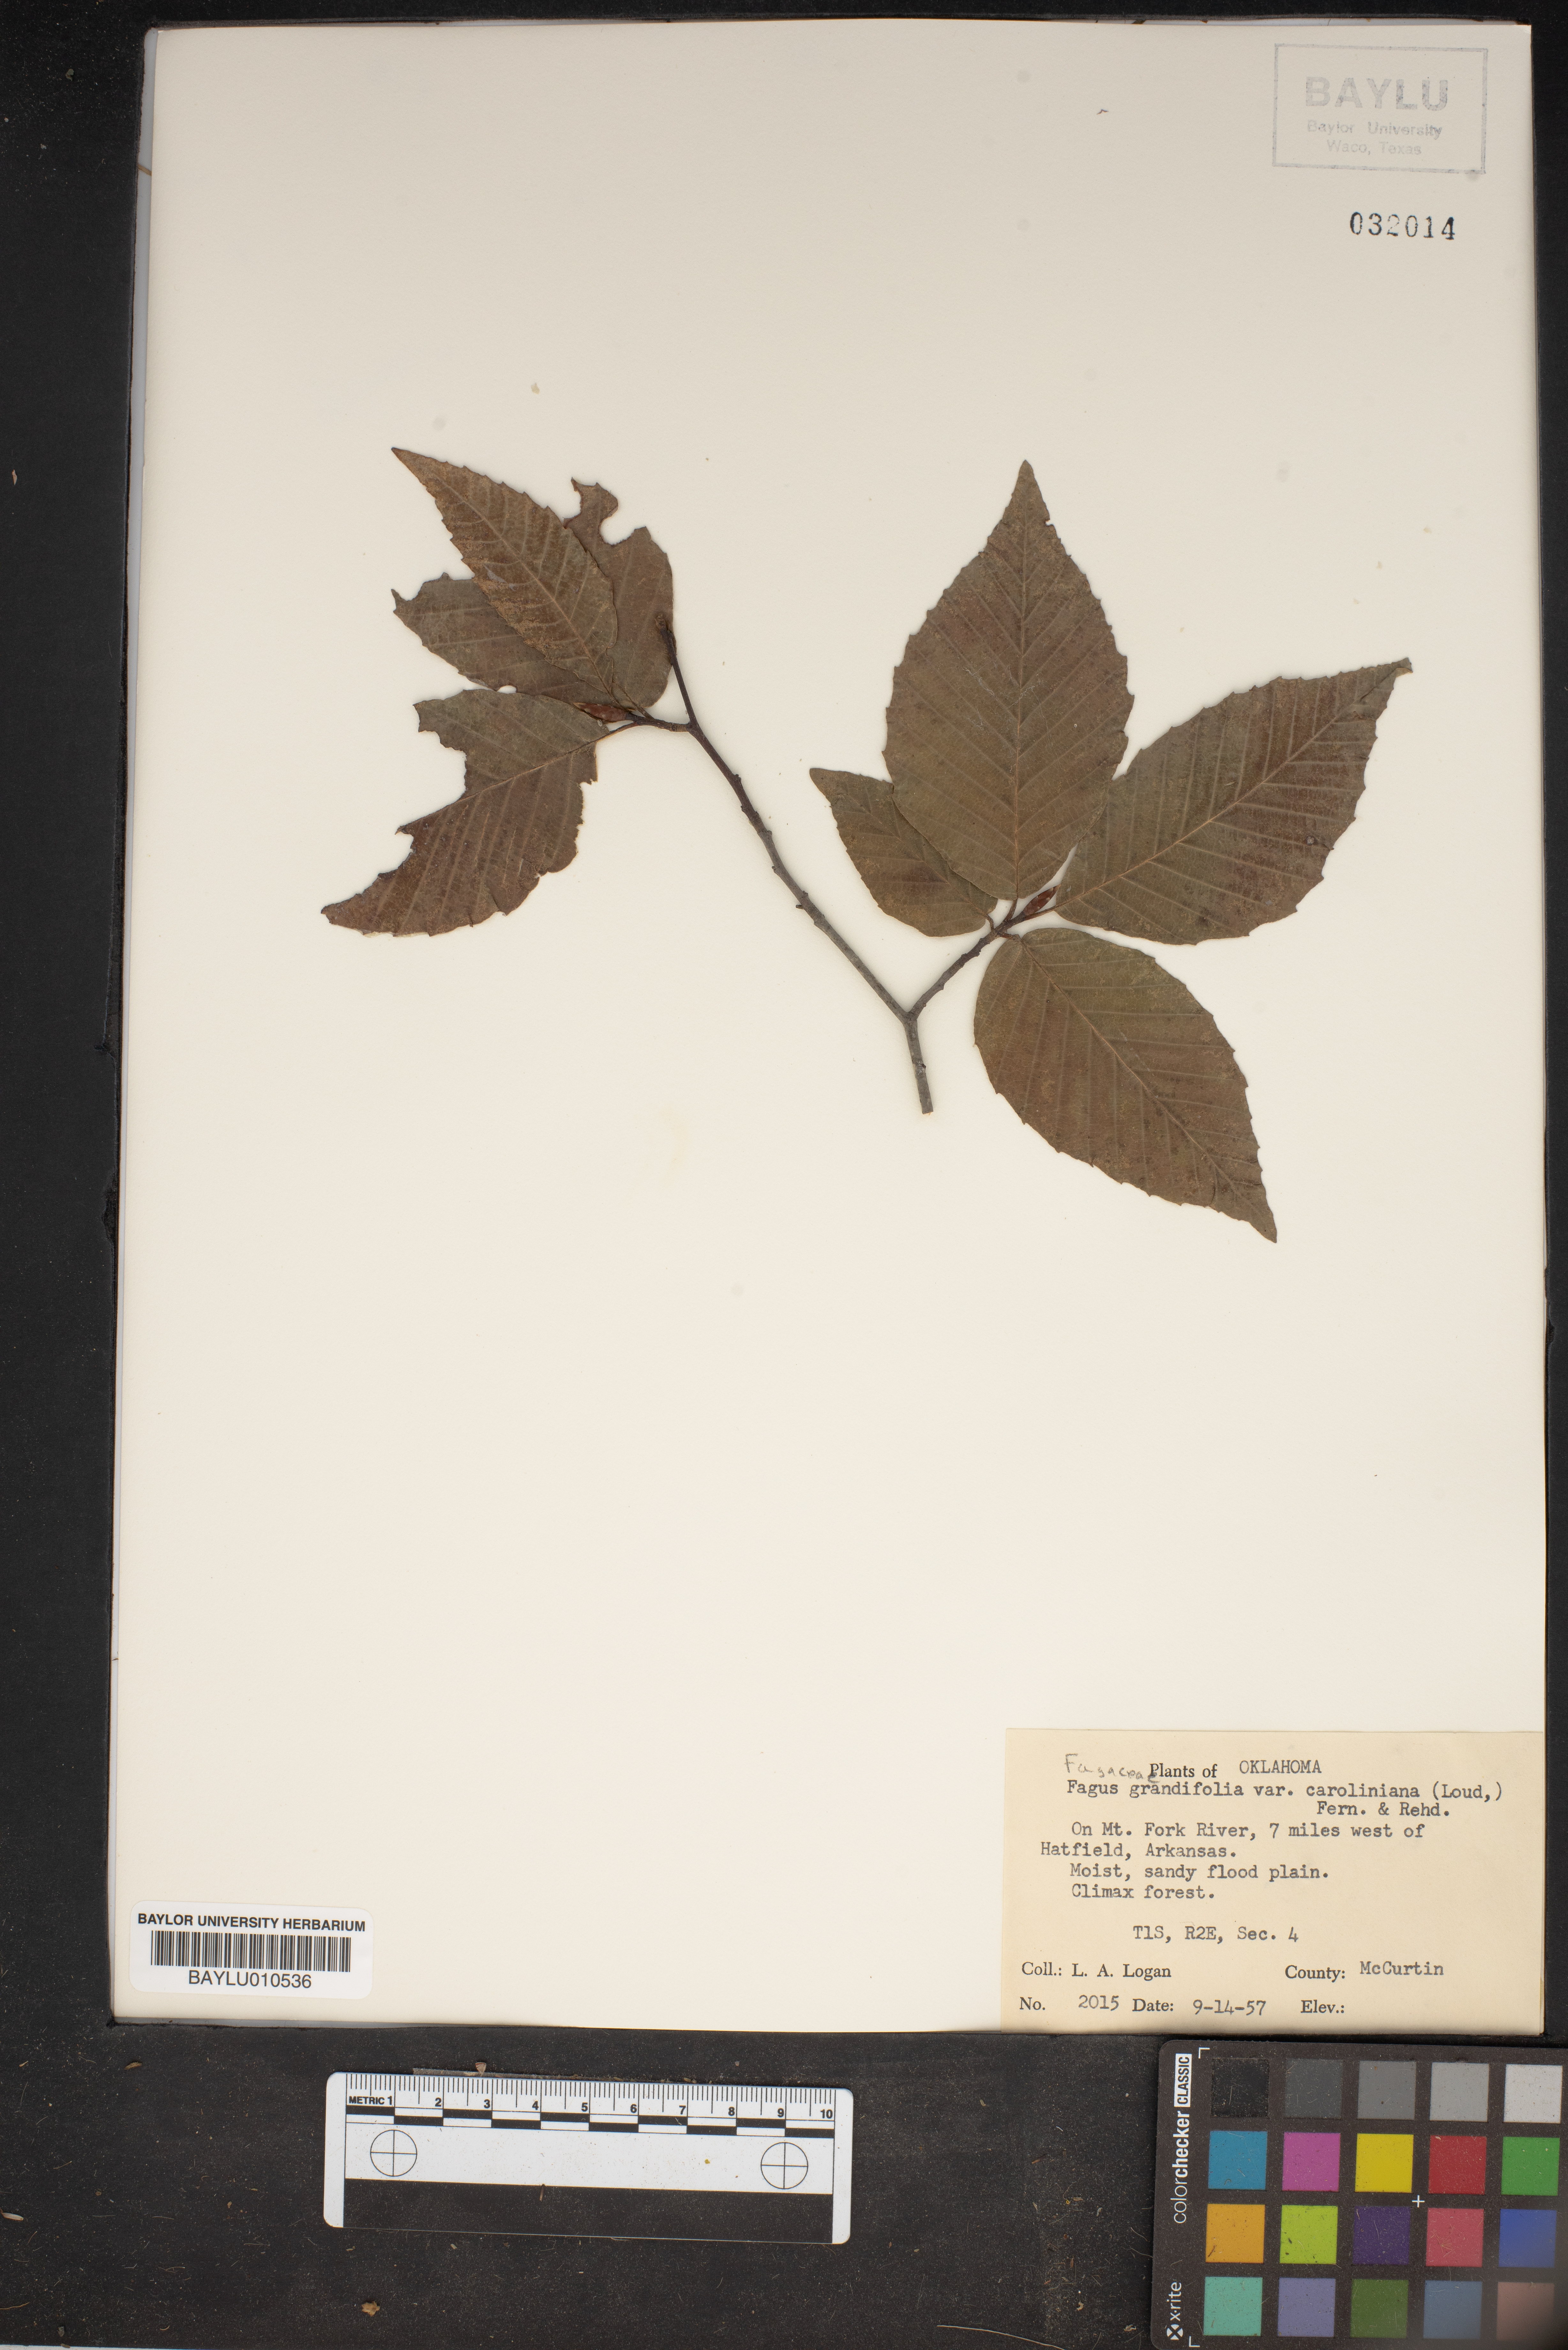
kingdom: Plantae
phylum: Tracheophyta
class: Magnoliopsida
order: Fagales
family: Fagaceae
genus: Fagus
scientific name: Fagus grandifolia
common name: American beech
